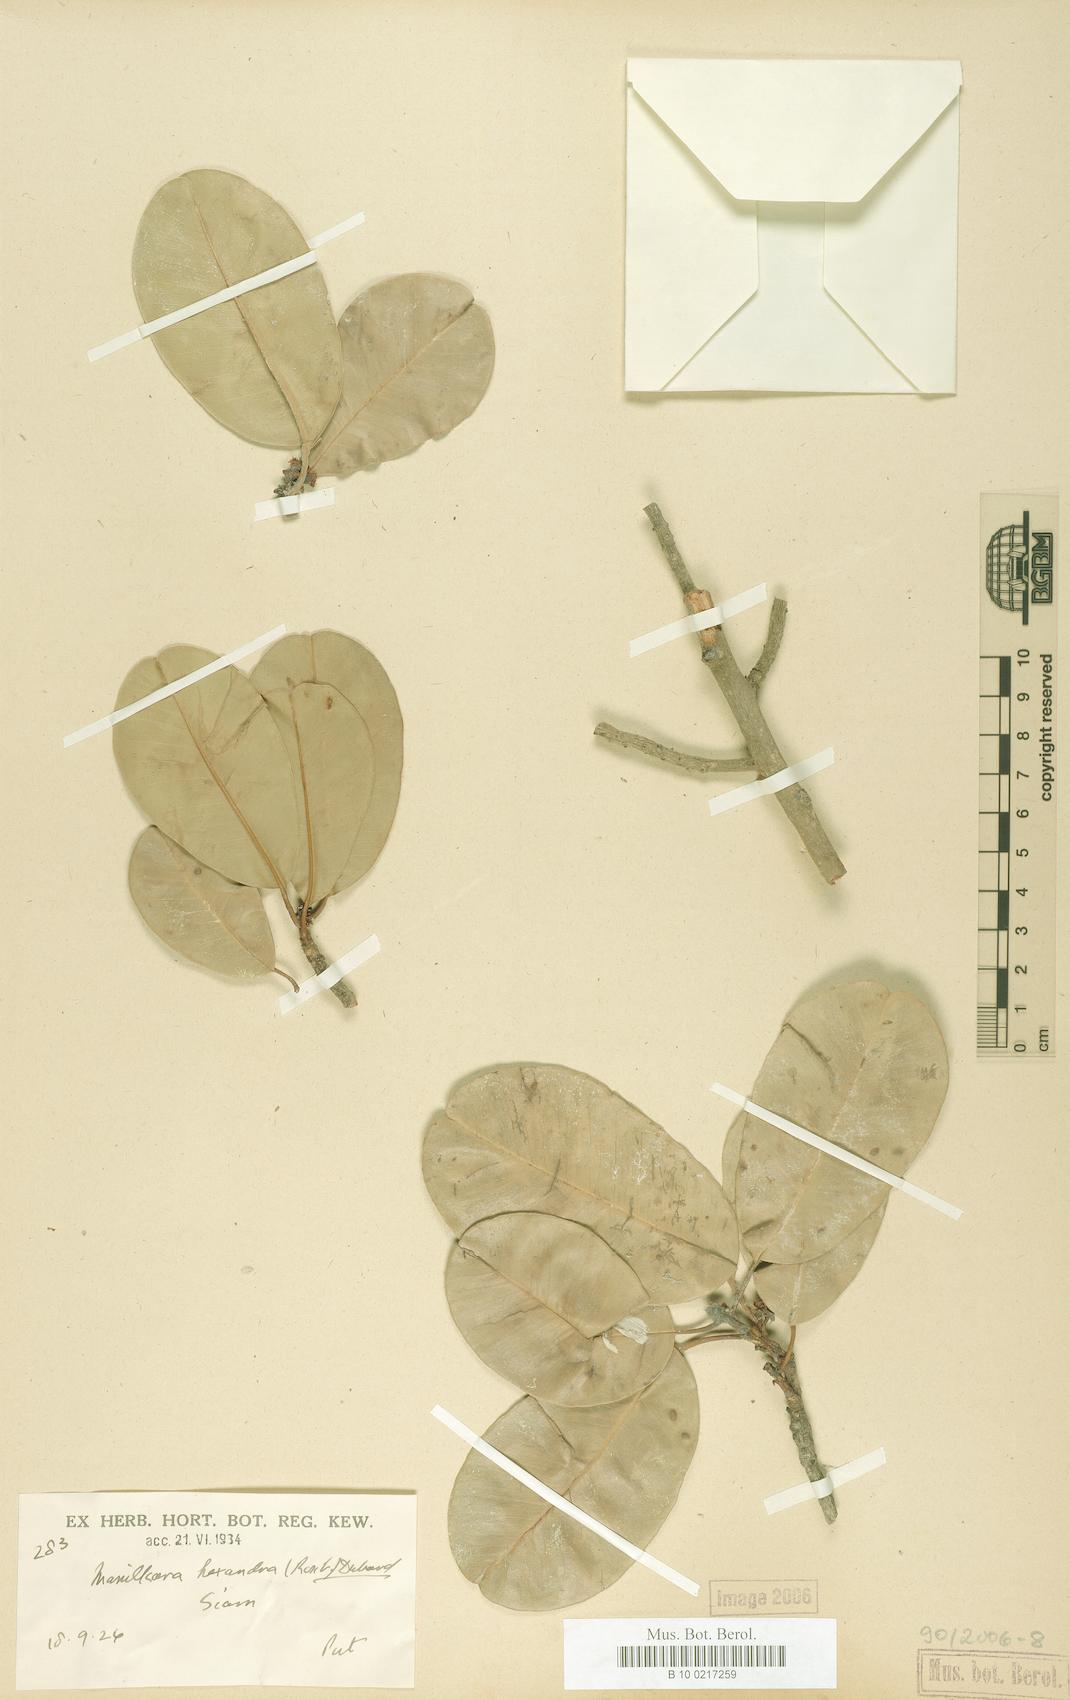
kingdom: Plantae
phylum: Tracheophyta
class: Magnoliopsida
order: Ericales
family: Sapotaceae
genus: Manilkara
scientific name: Manilkara hexandra
